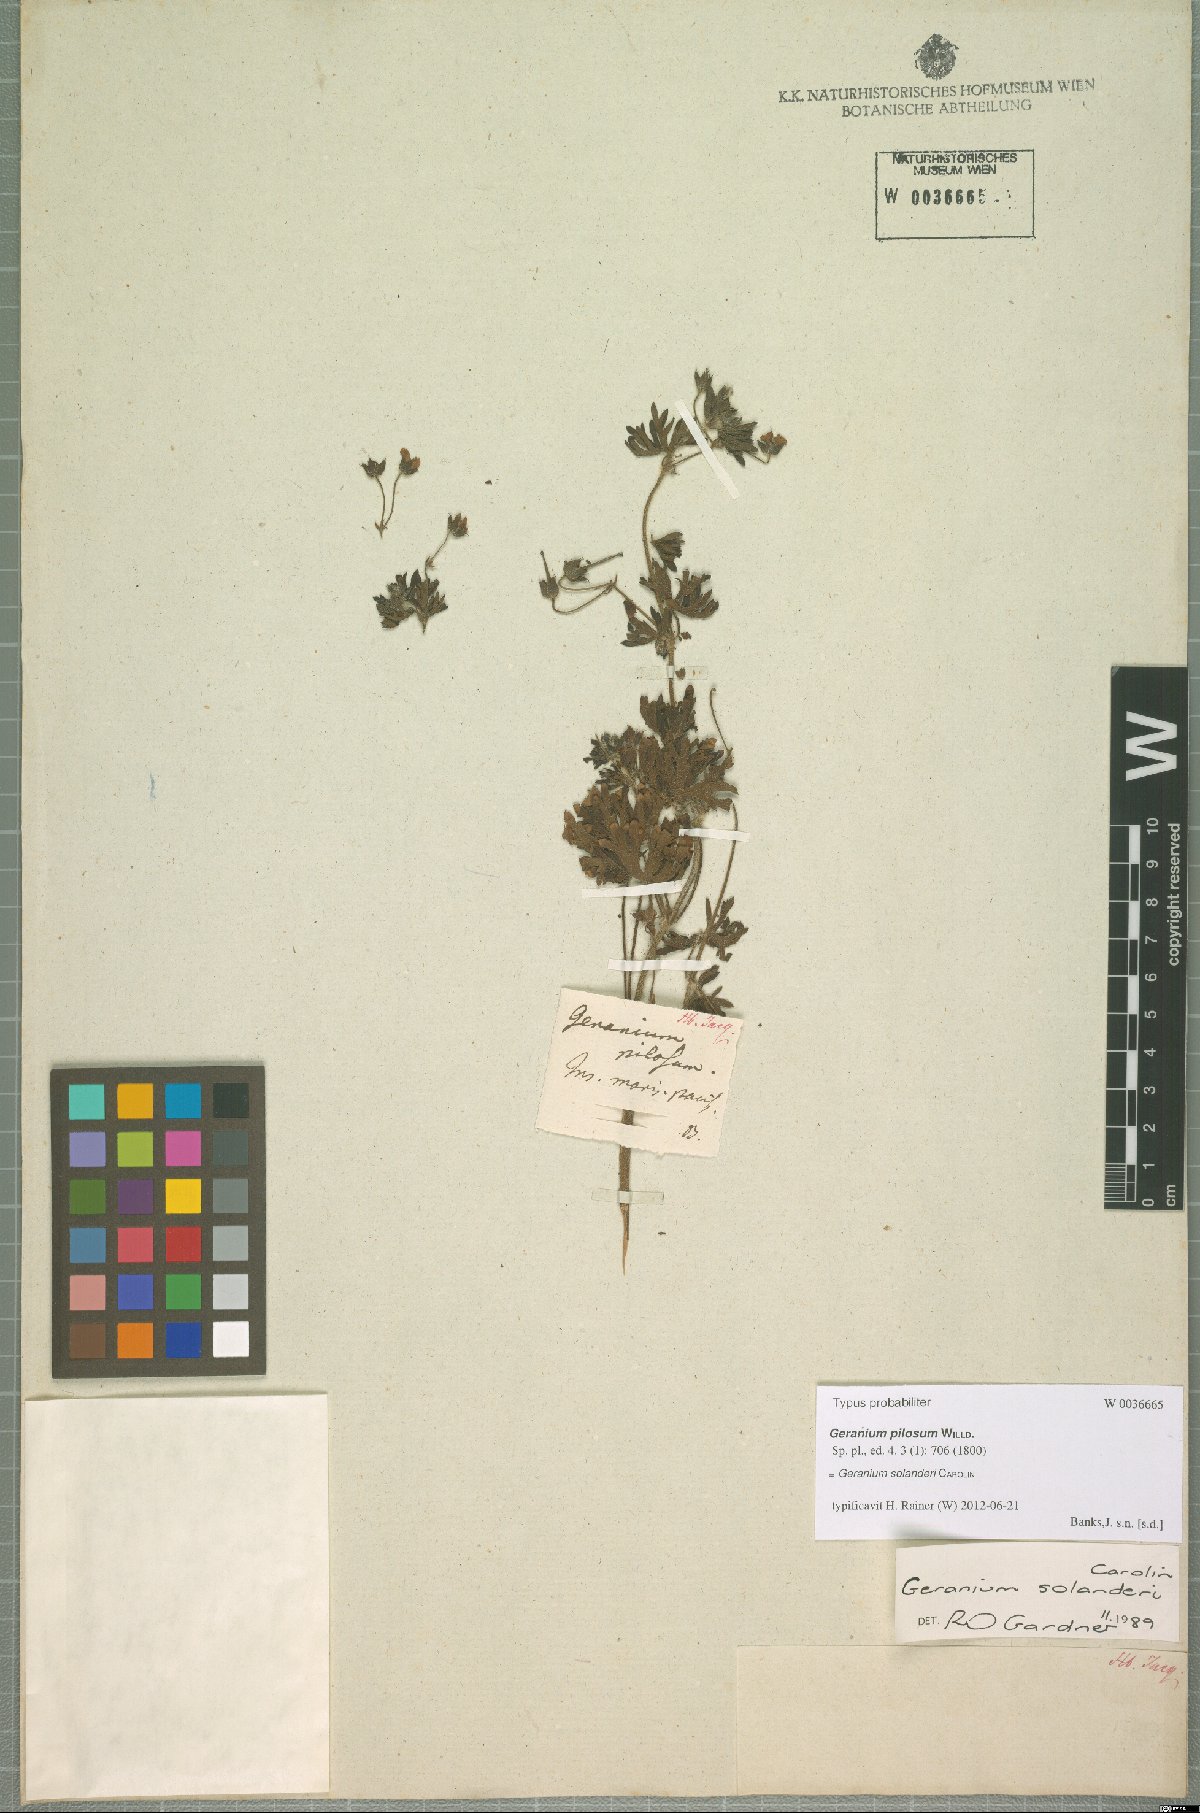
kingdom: Plantae
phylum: Tracheophyta
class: Magnoliopsida
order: Geraniales
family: Geraniaceae
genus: Geranium
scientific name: Geranium solanderi
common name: Solander's geranium
